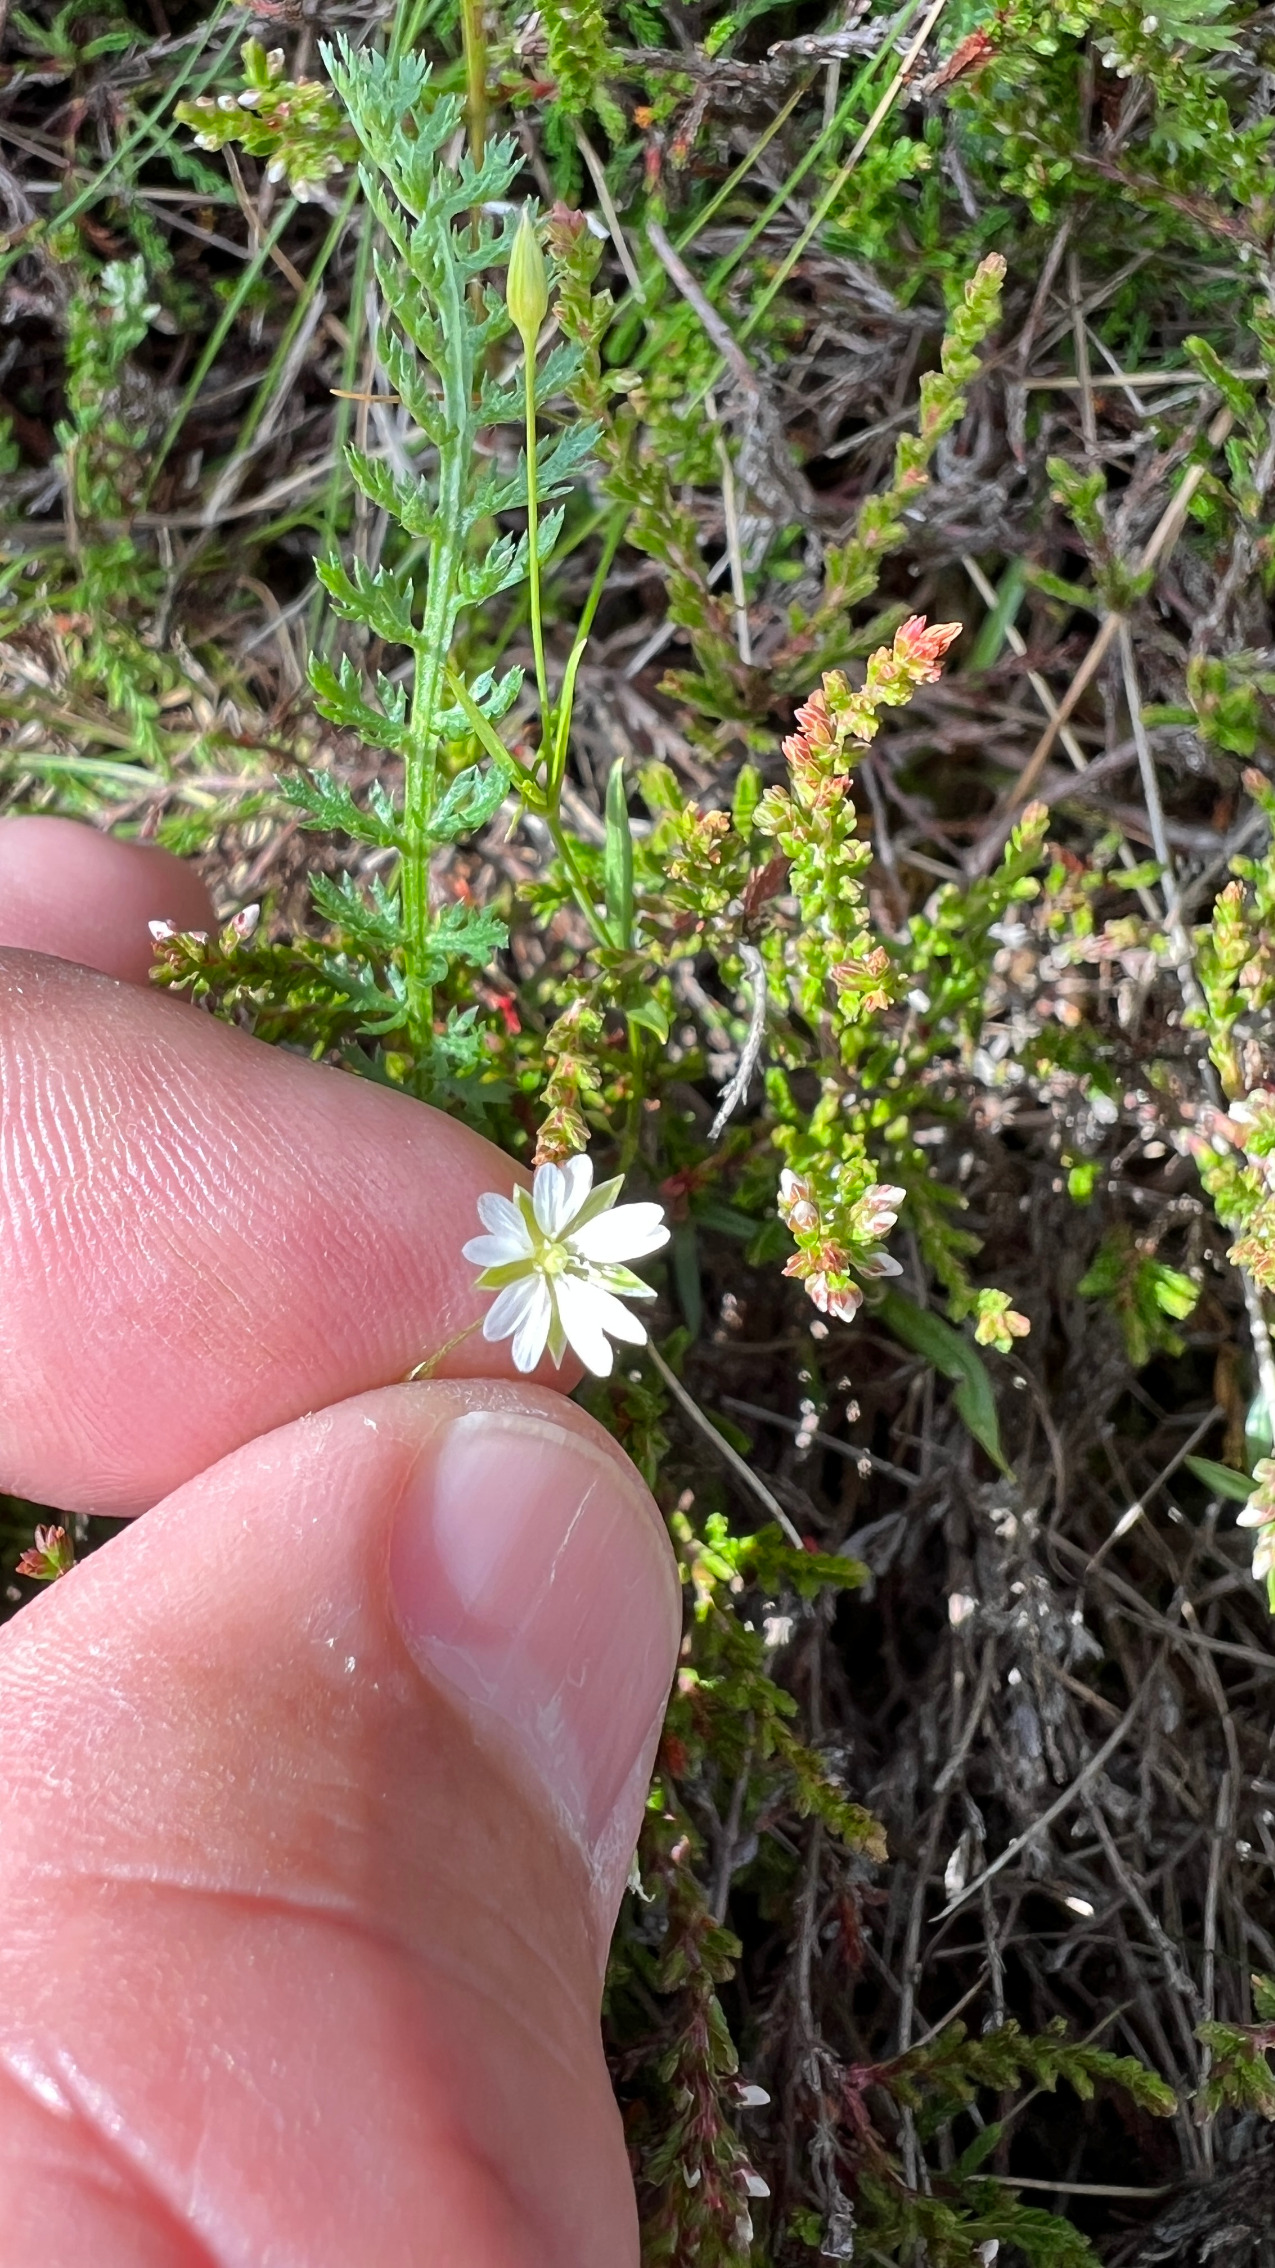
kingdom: Plantae
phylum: Tracheophyta
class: Magnoliopsida
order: Caryophyllales
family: Caryophyllaceae
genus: Stellaria
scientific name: Stellaria graminea
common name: Græsbladet fladstjerne
